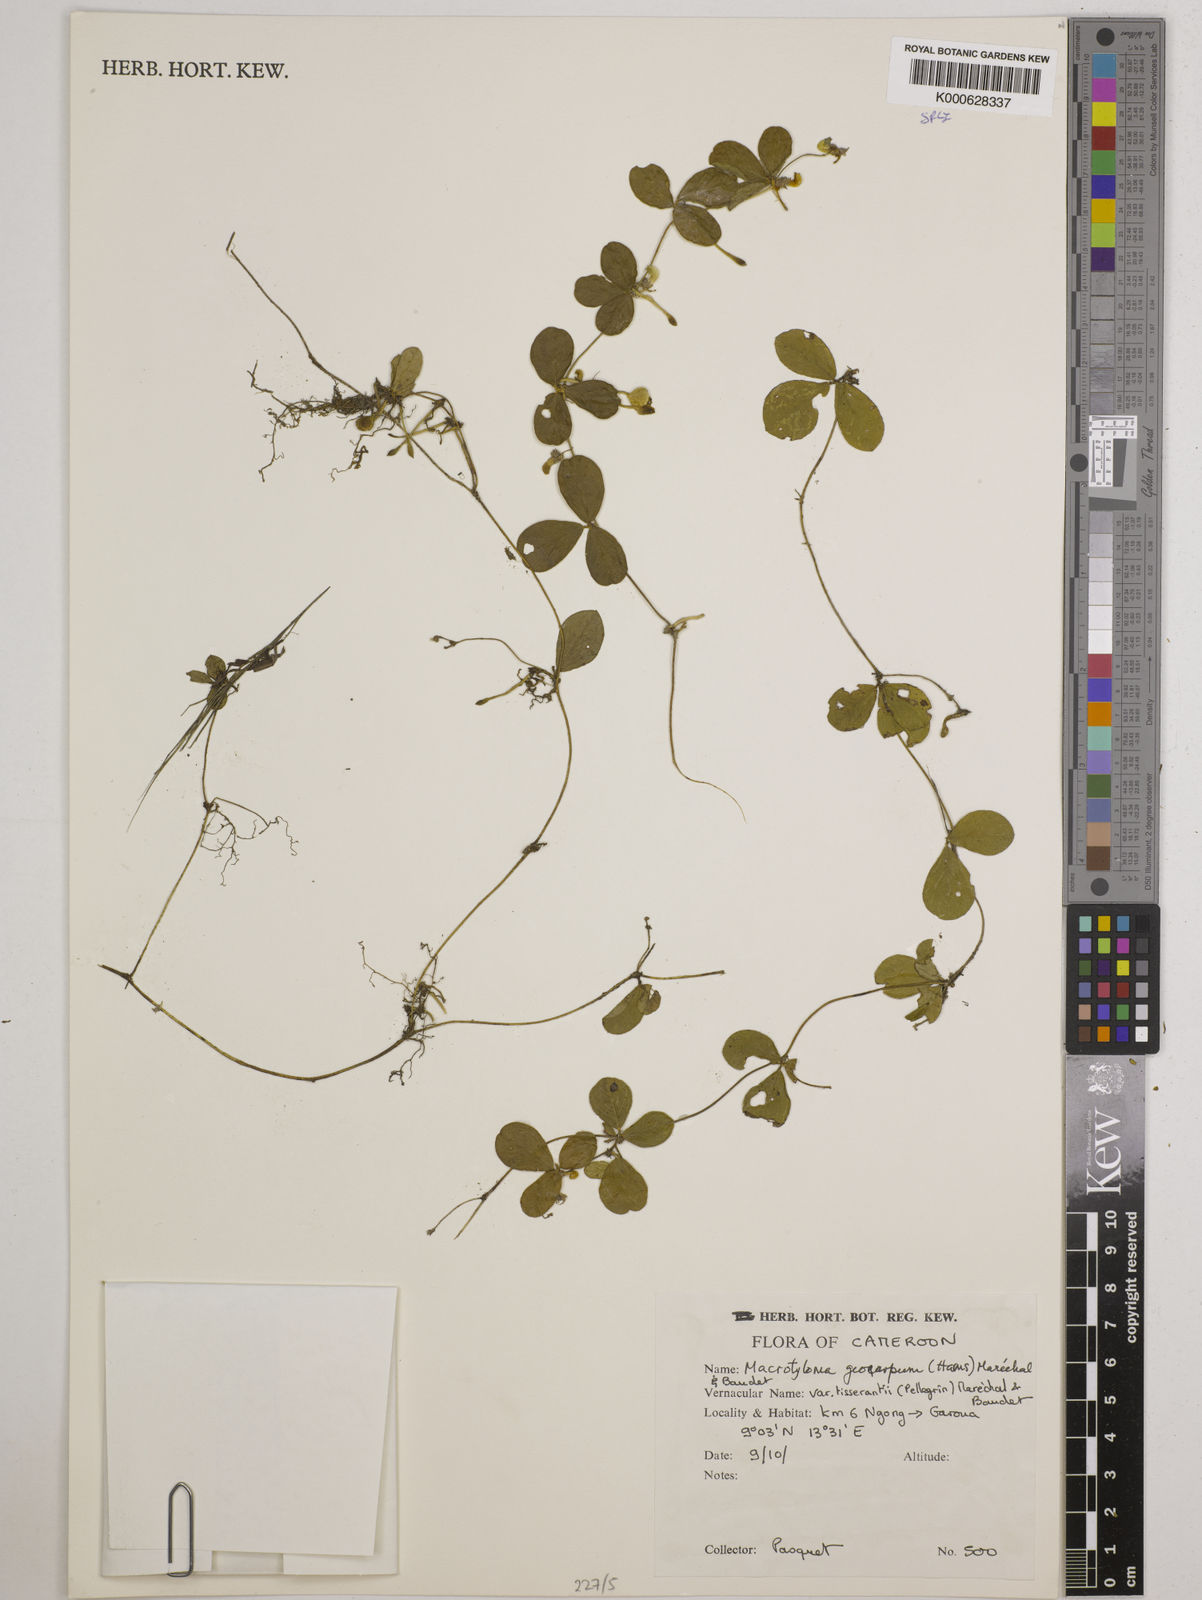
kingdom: Plantae
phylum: Tracheophyta
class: Magnoliopsida
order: Fabales
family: Fabaceae
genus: Macrotyloma
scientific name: Macrotyloma geocarpum
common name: Ground-bean
